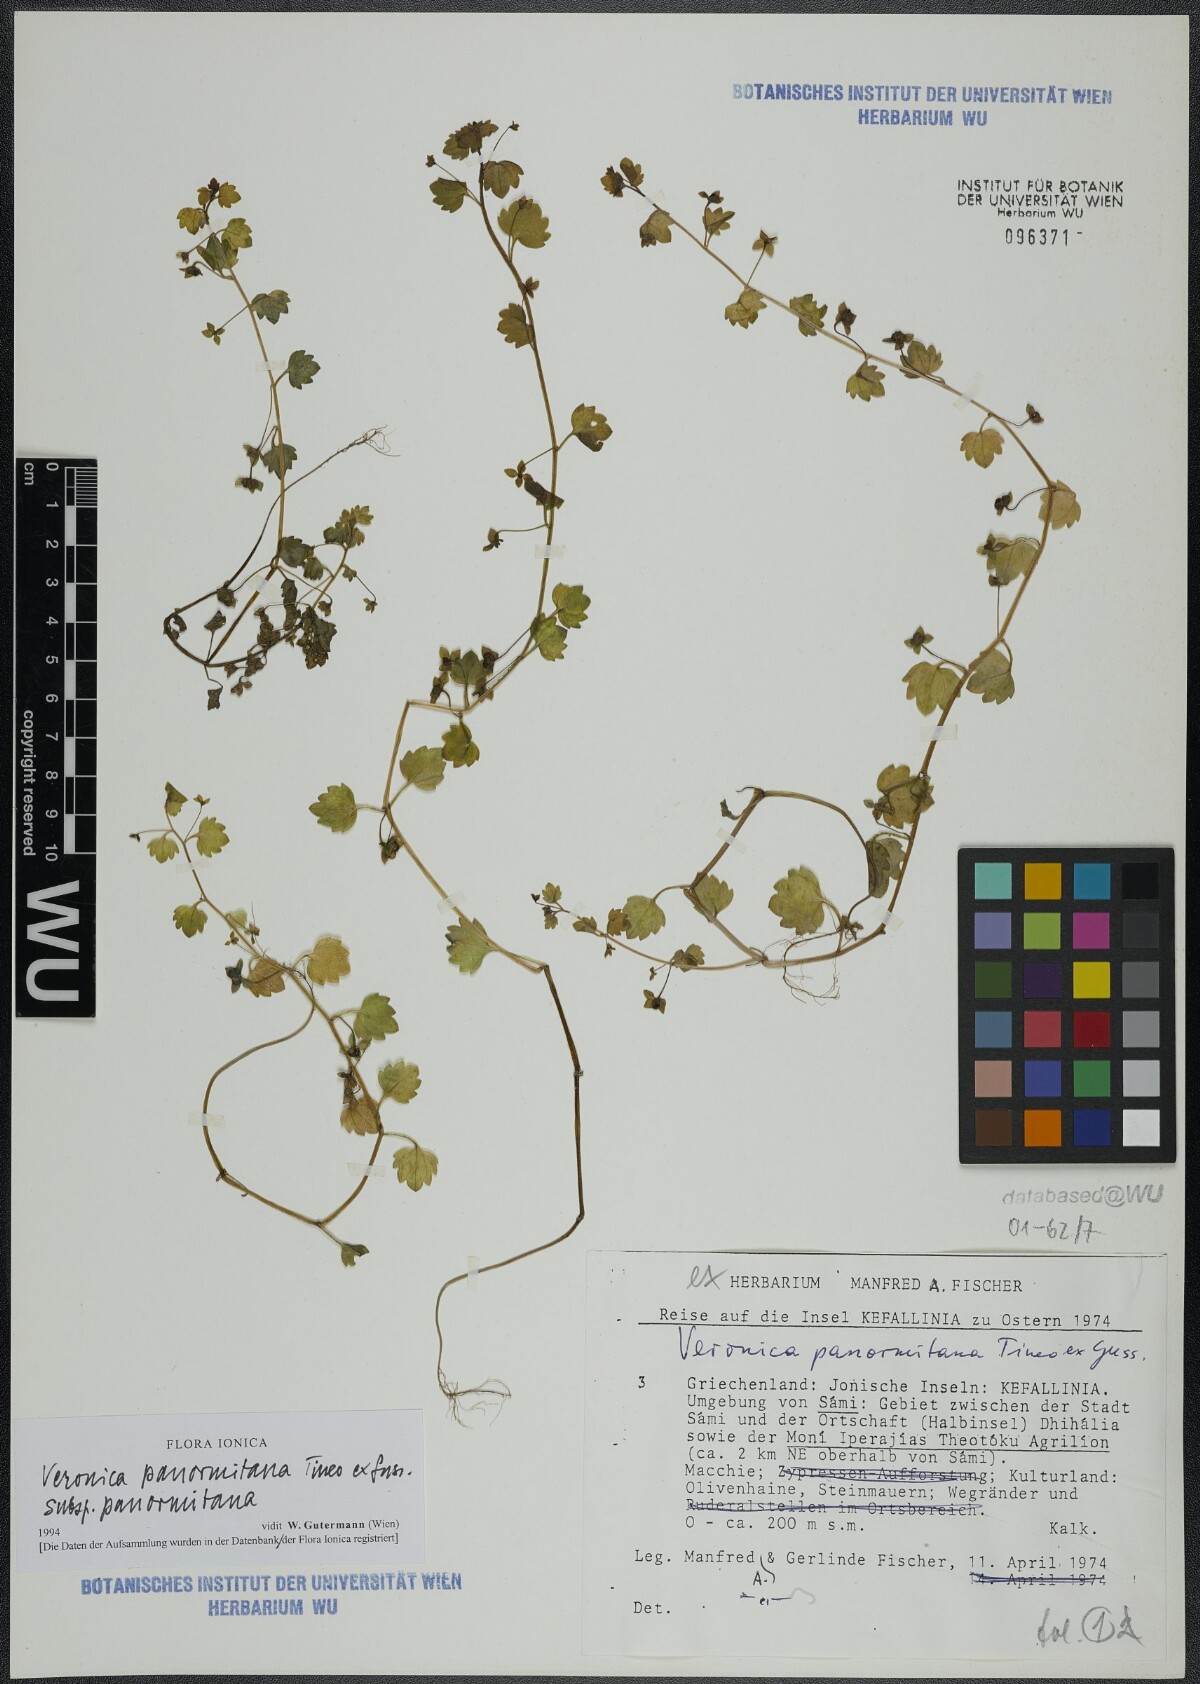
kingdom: Plantae
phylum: Tracheophyta
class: Magnoliopsida
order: Lamiales
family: Plantaginaceae
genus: Veronica
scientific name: Veronica panormitana
